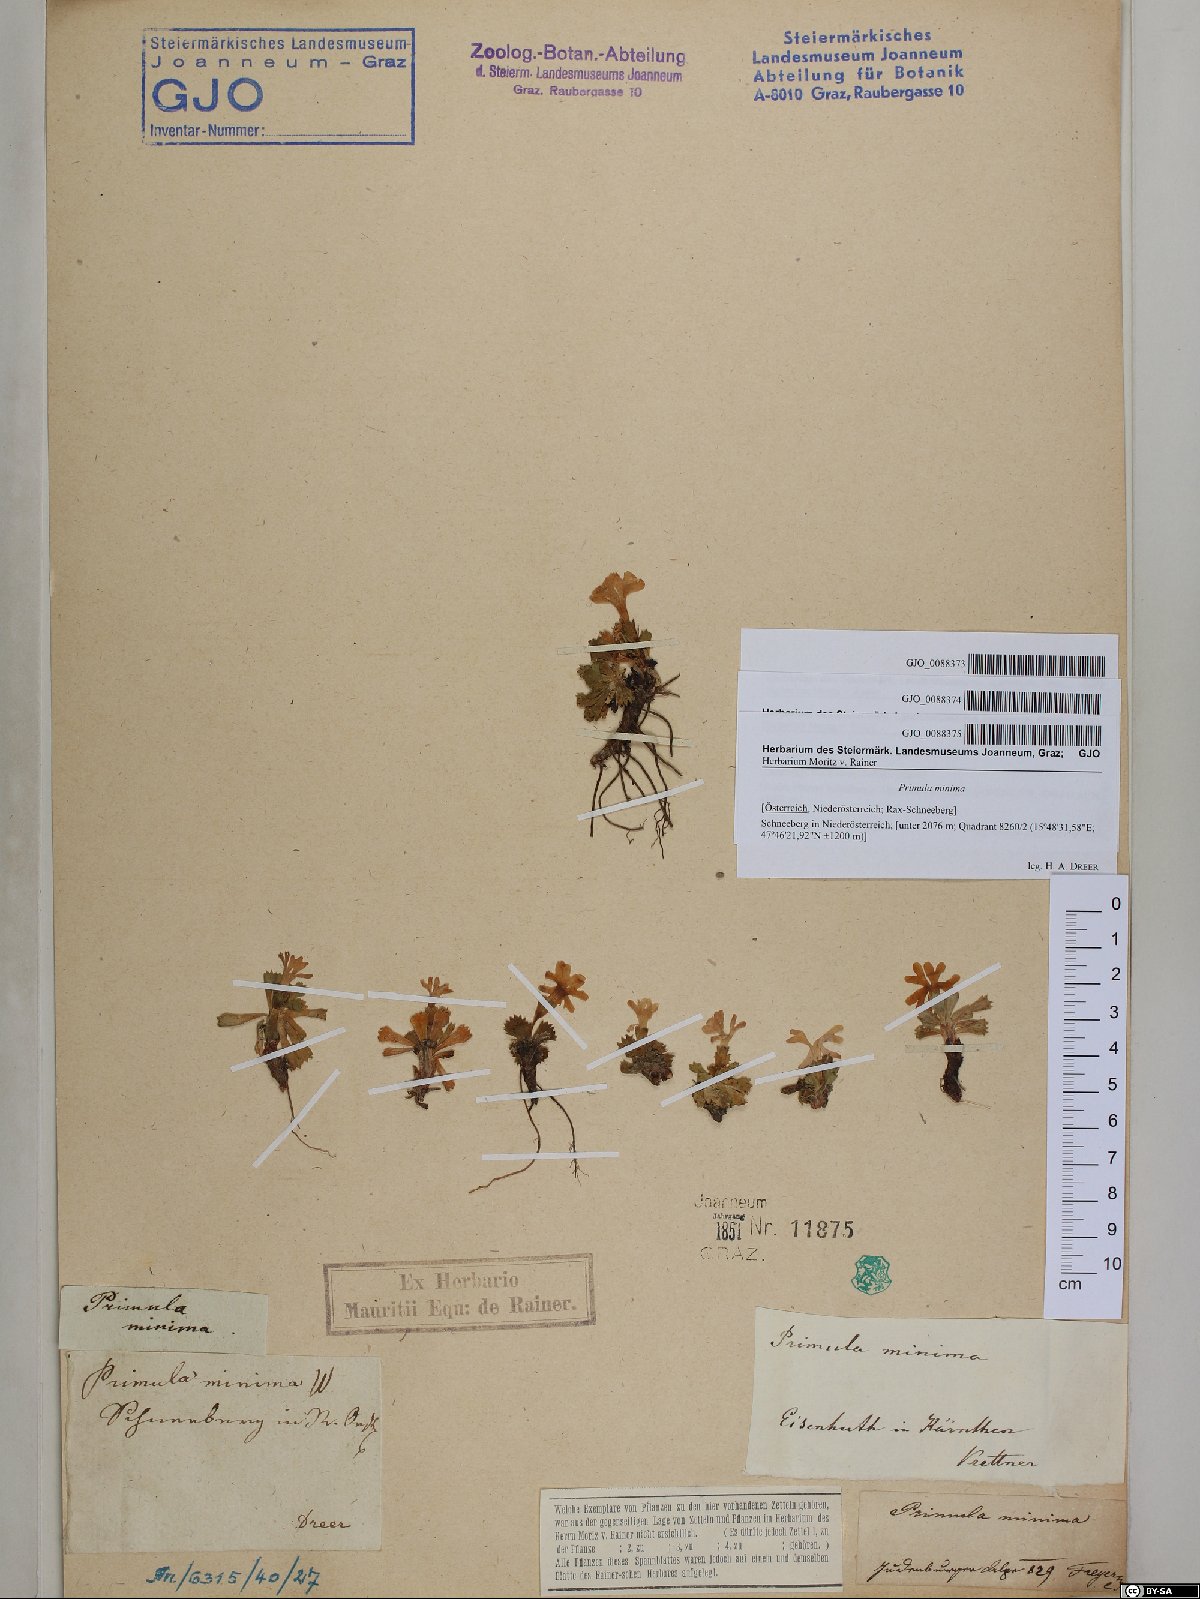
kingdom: Plantae
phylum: Tracheophyta
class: Magnoliopsida
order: Ericales
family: Primulaceae
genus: Primula
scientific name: Primula minima
